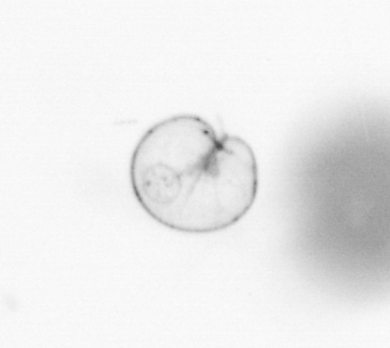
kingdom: Chromista
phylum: Myzozoa
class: Dinophyceae
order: Noctilucales
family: Noctilucaceae
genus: Noctiluca
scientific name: Noctiluca scintillans
